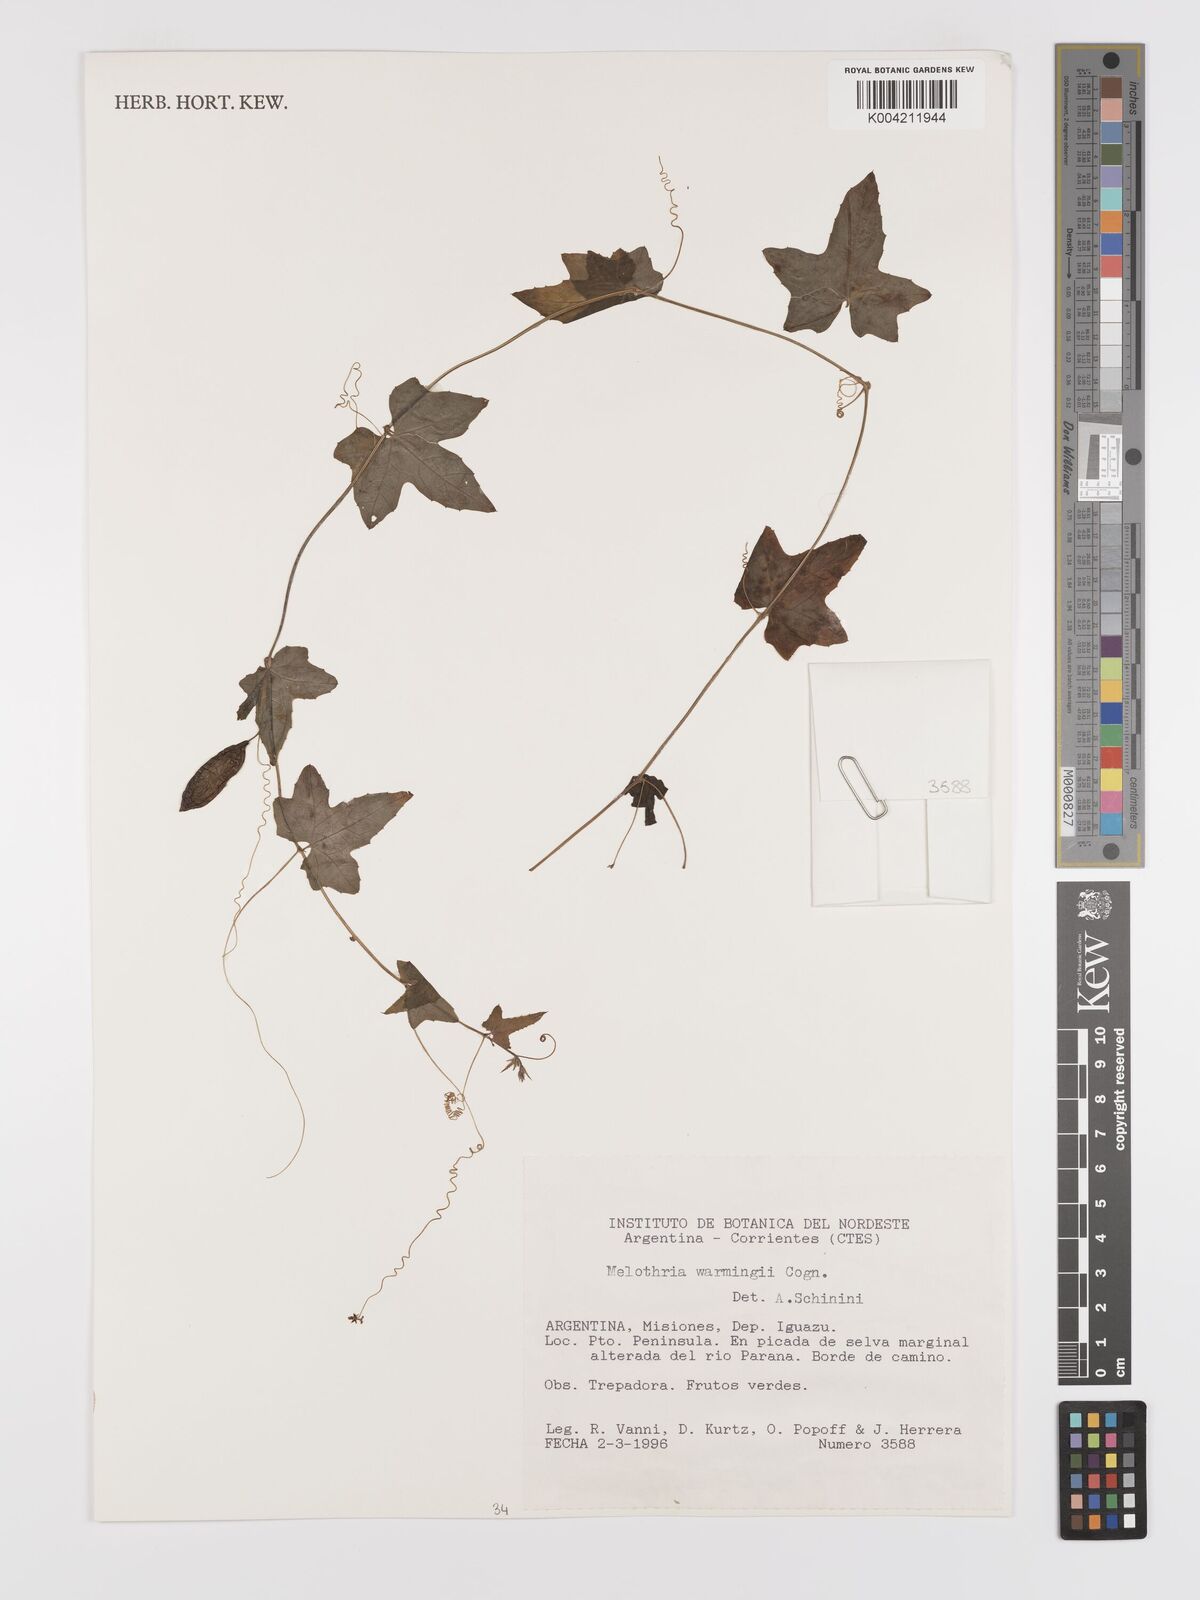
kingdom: Plantae
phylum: Tracheophyta
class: Magnoliopsida
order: Cucurbitales
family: Cucurbitaceae
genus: Melothria
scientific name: Melothria warmingii
